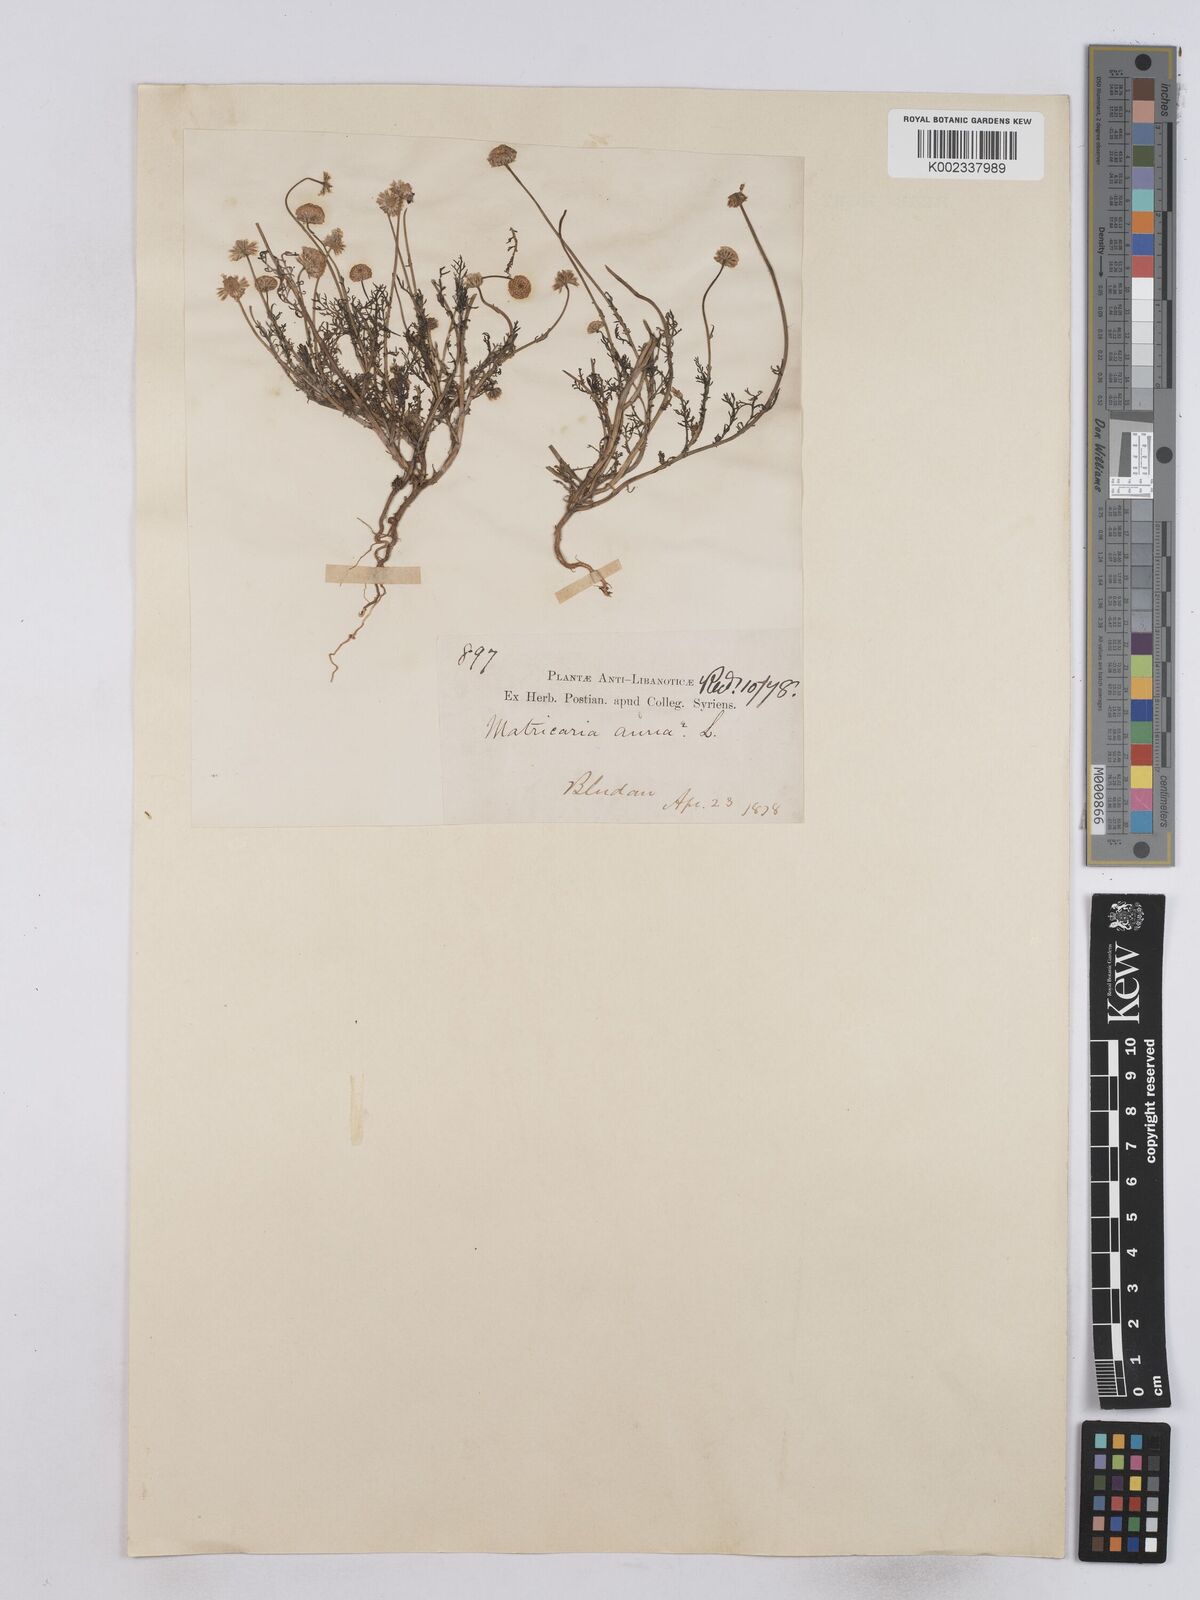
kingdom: Plantae
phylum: Tracheophyta
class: Magnoliopsida
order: Asterales
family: Asteraceae
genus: Matricaria
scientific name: Matricaria aurea
